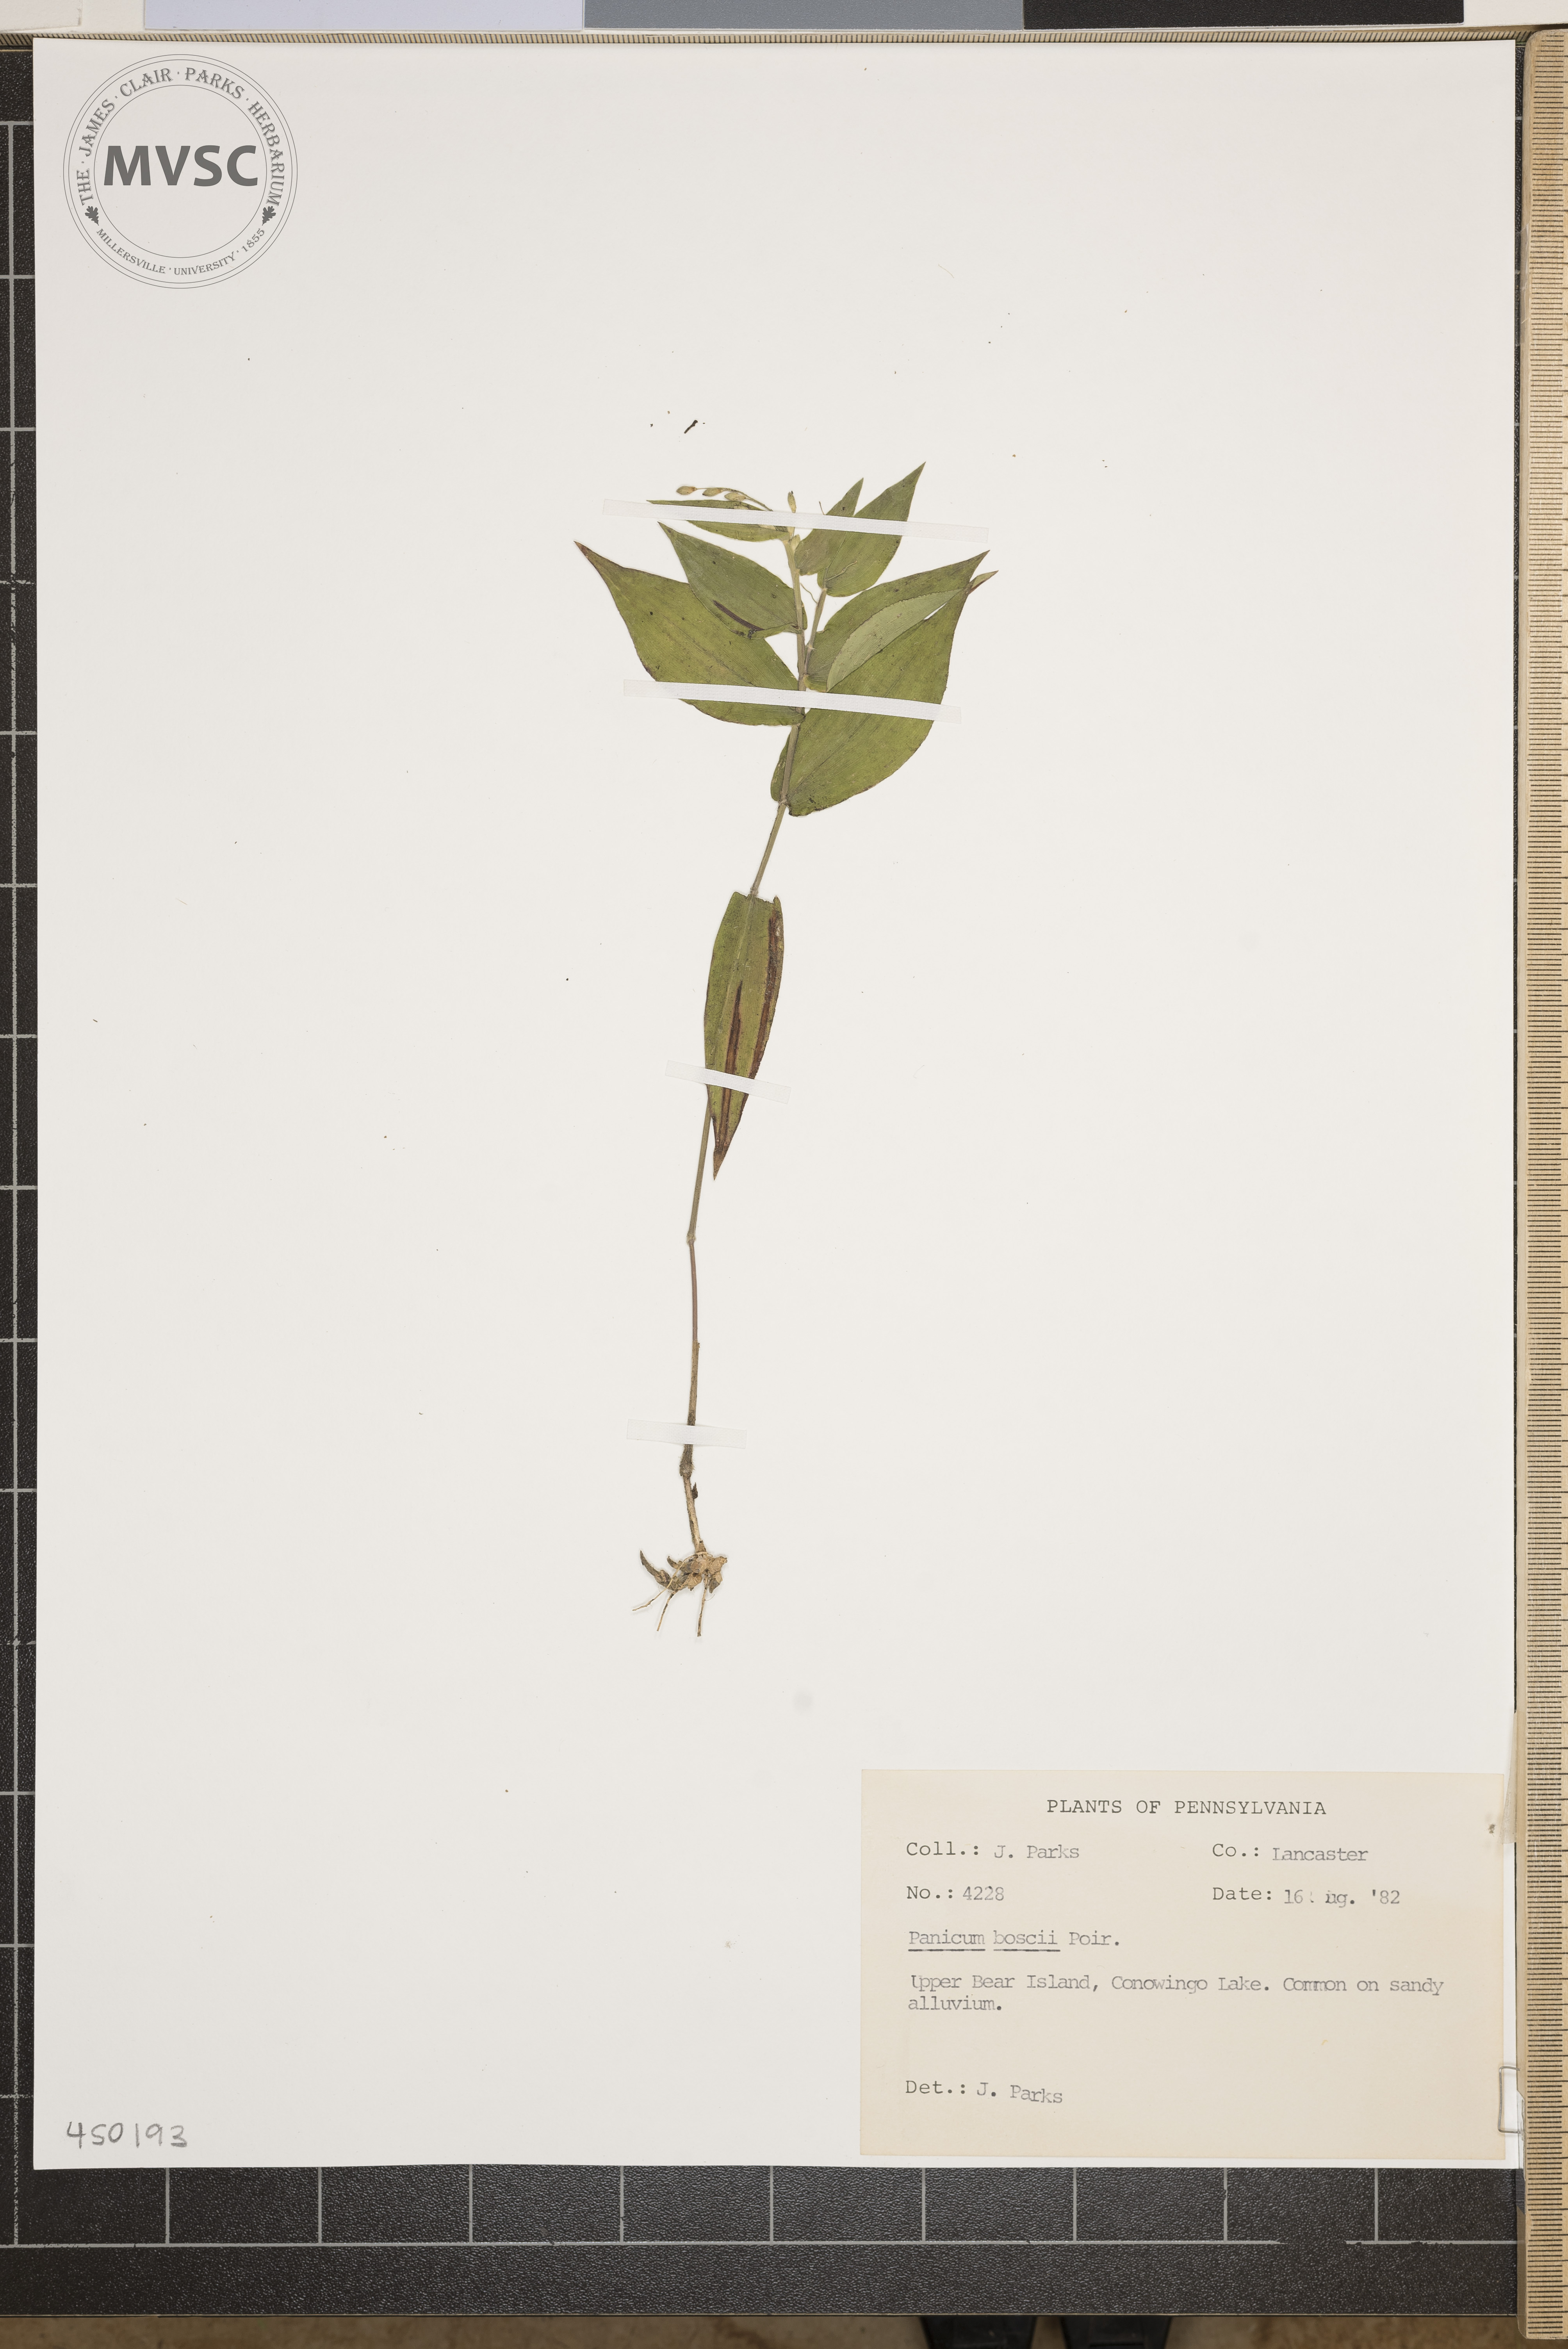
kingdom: Plantae
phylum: Tracheophyta
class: Liliopsida
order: Poales
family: Poaceae
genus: Dichanthelium
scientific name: Dichanthelium boscii
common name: Bosc's panic grass
